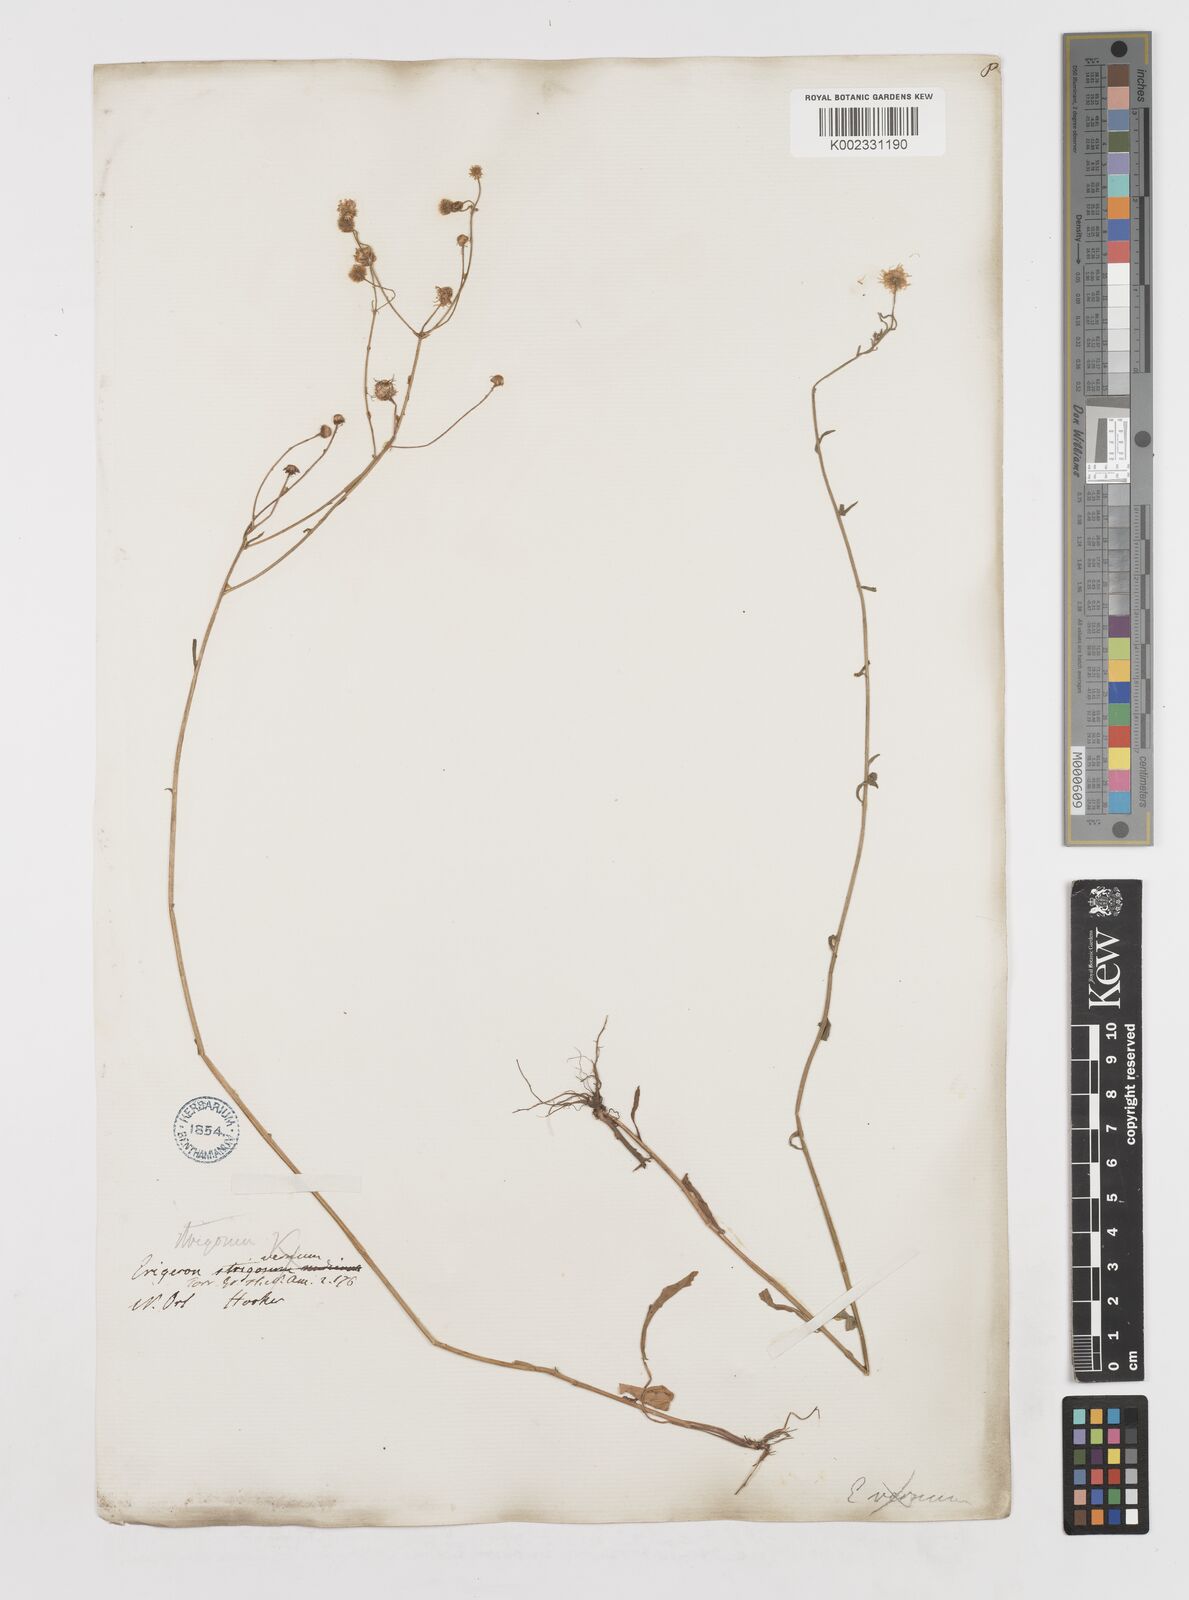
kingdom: Plantae
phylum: Tracheophyta
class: Magnoliopsida
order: Asterales
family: Asteraceae
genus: Erigeron
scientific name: Erigeron strigosus
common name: Common eastern fleabane
